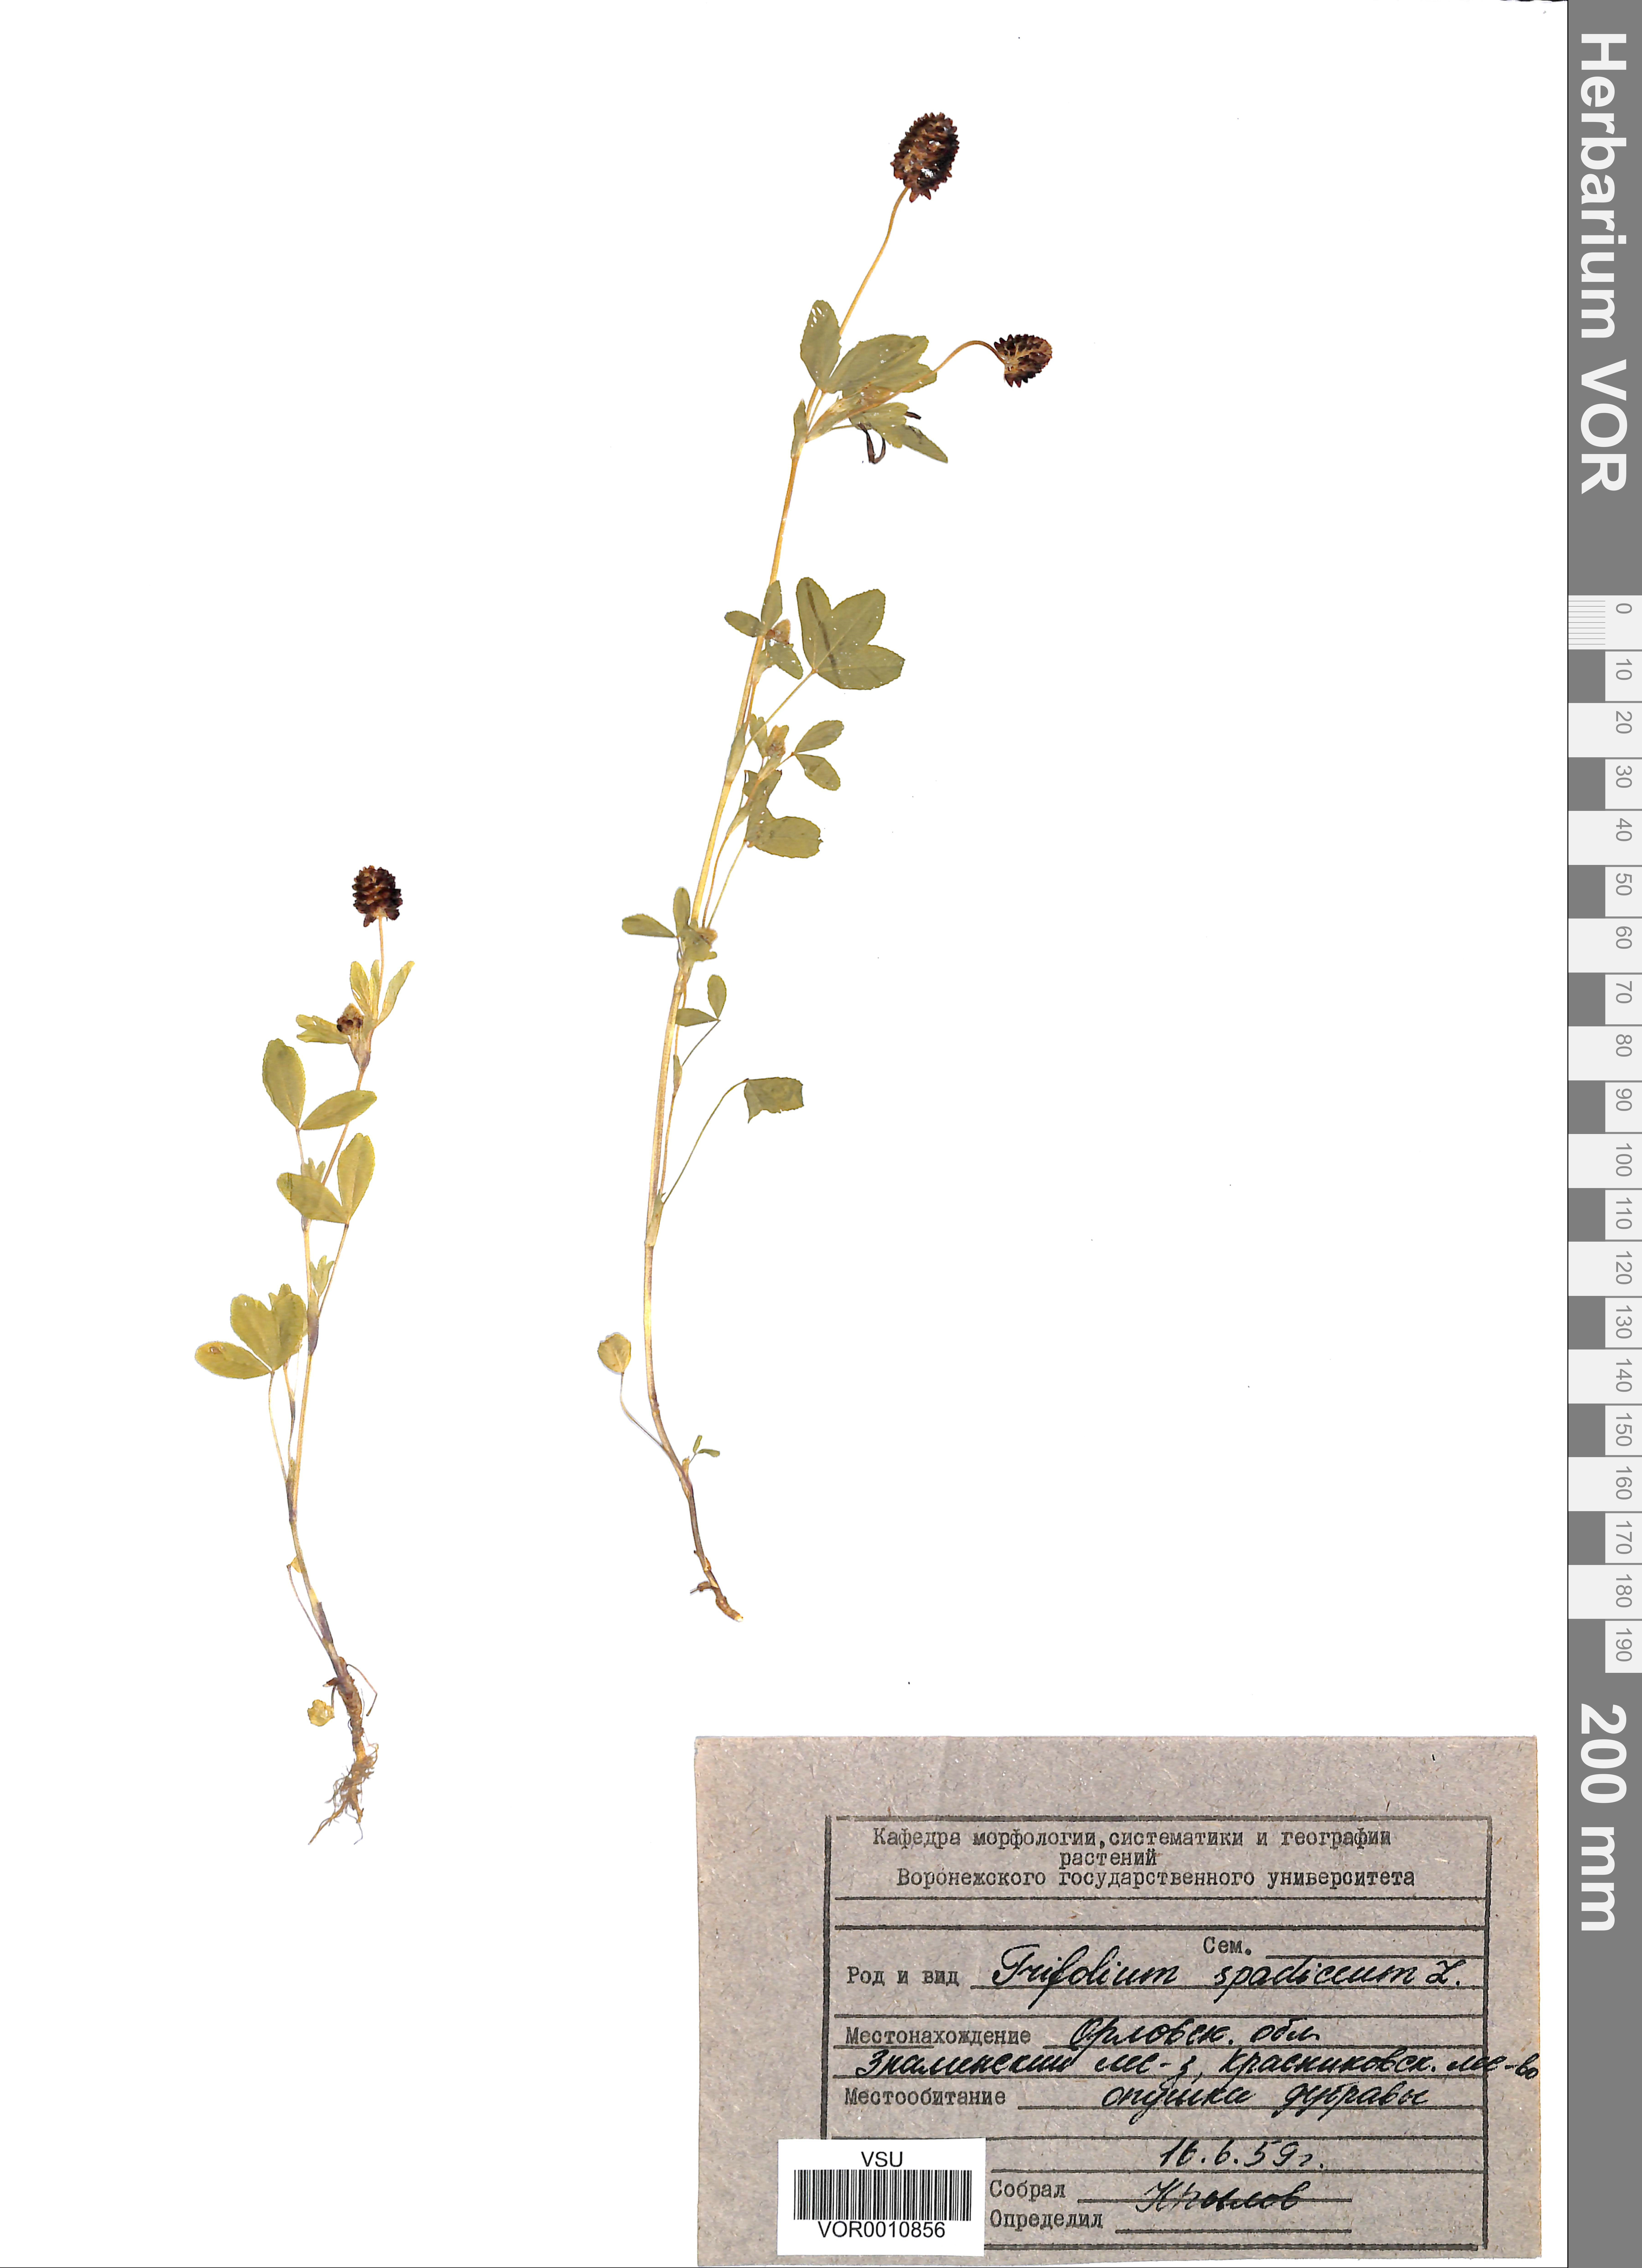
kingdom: Plantae
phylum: Tracheophyta
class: Magnoliopsida
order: Fabales
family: Fabaceae
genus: Trifolium
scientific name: Trifolium spadiceum
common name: Brown moor clover
